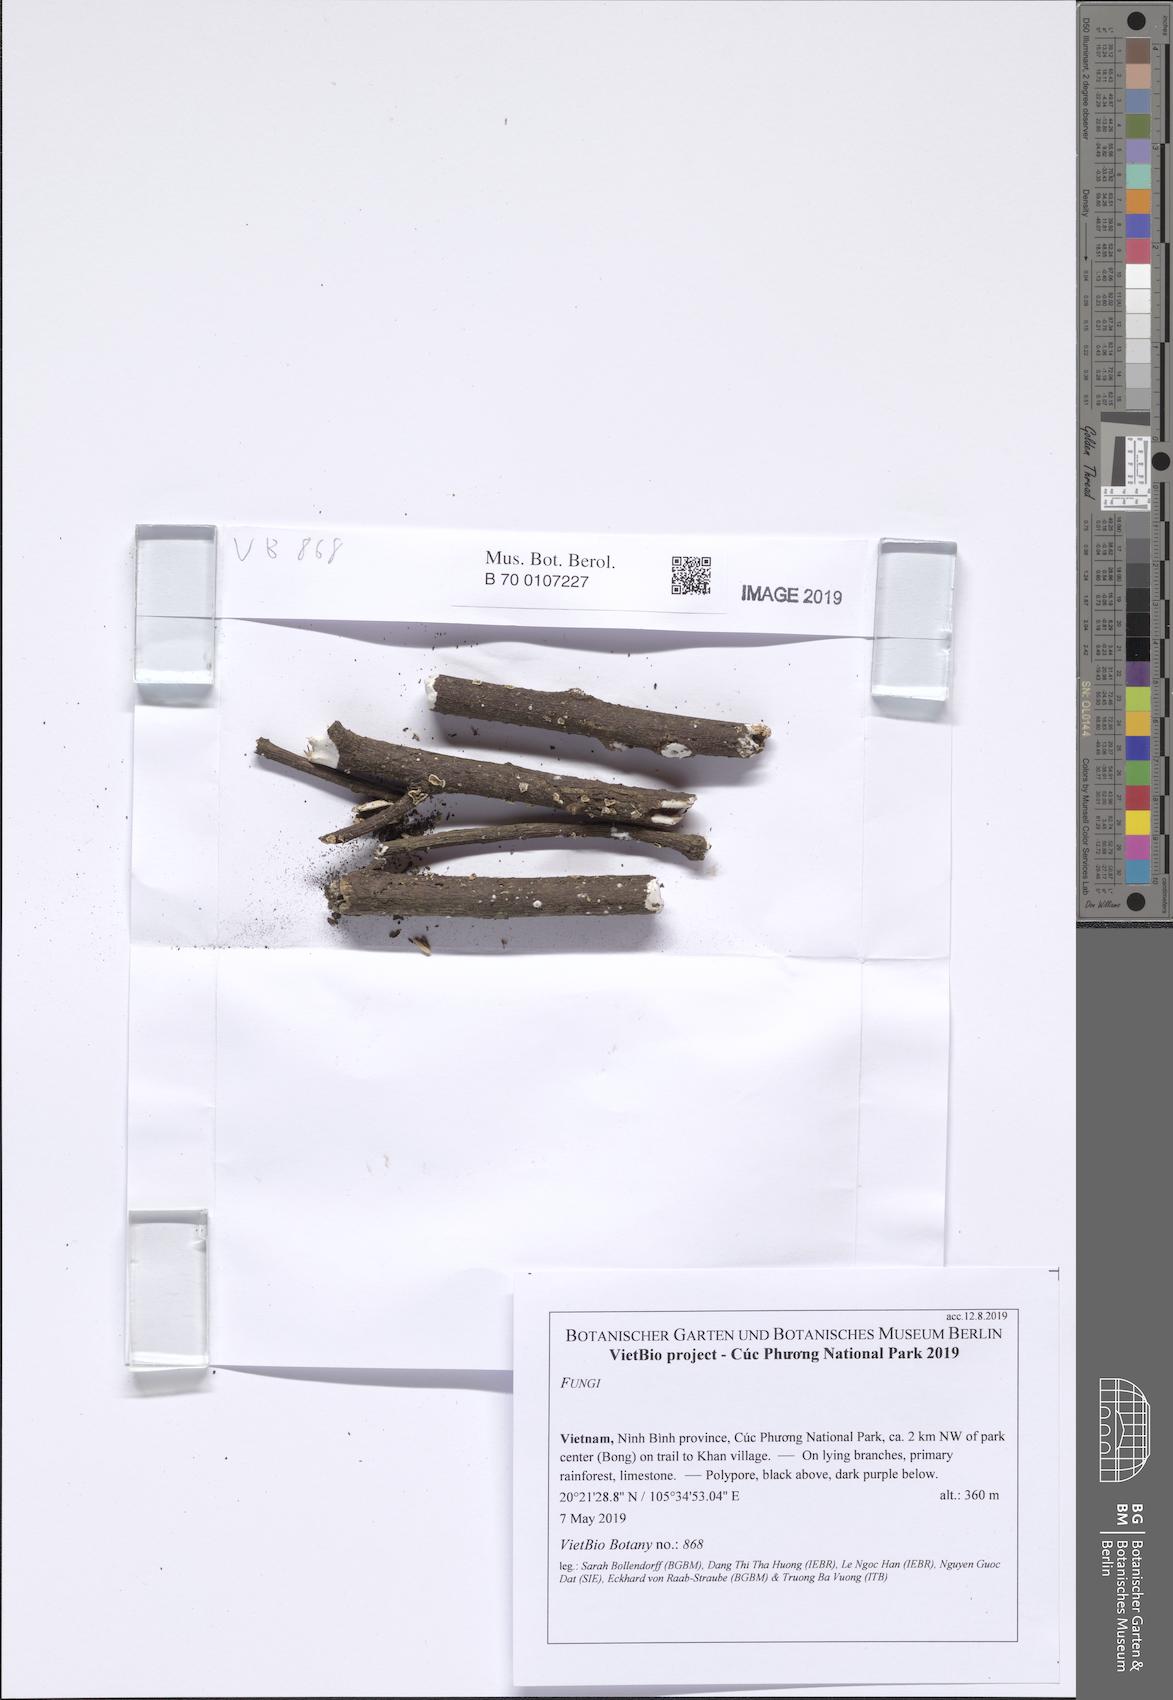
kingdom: Fungi
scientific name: Fungi
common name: Fungi
